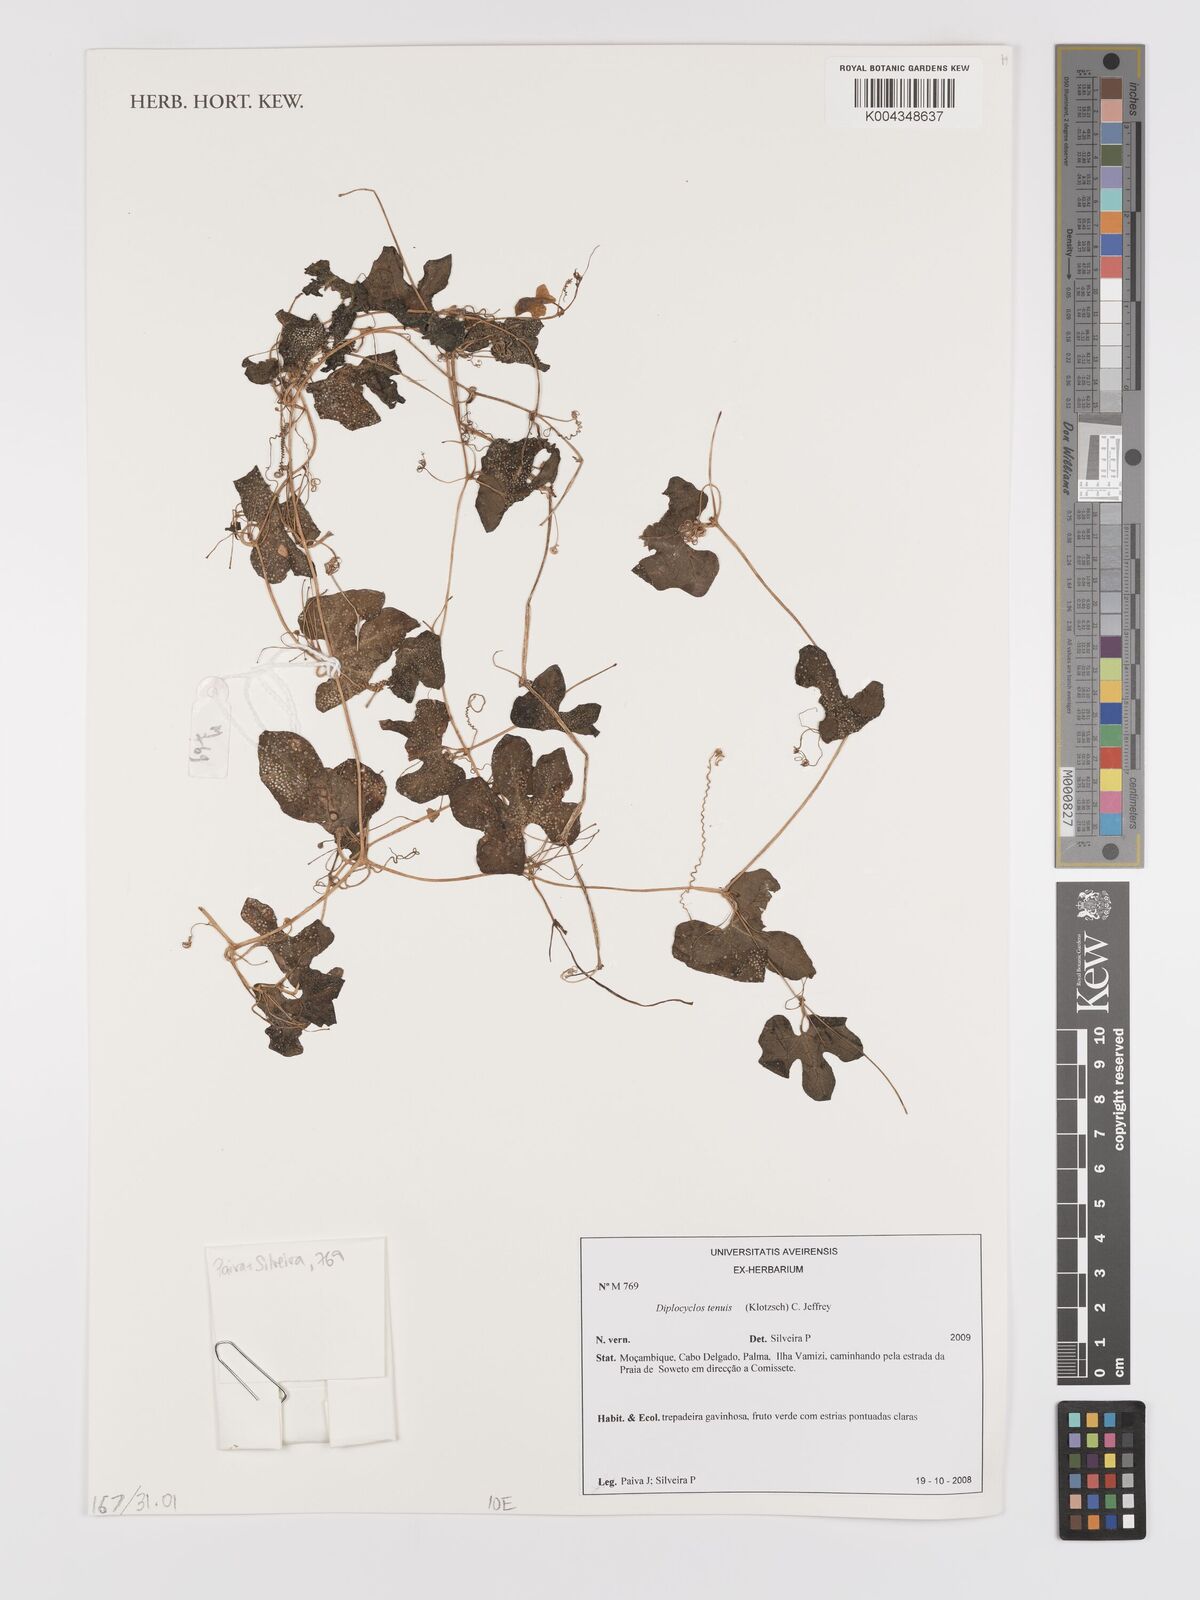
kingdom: Plantae
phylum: Tracheophyta
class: Magnoliopsida
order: Cucurbitales
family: Cucurbitaceae
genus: Diplocyclos
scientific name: Diplocyclos tenuis
